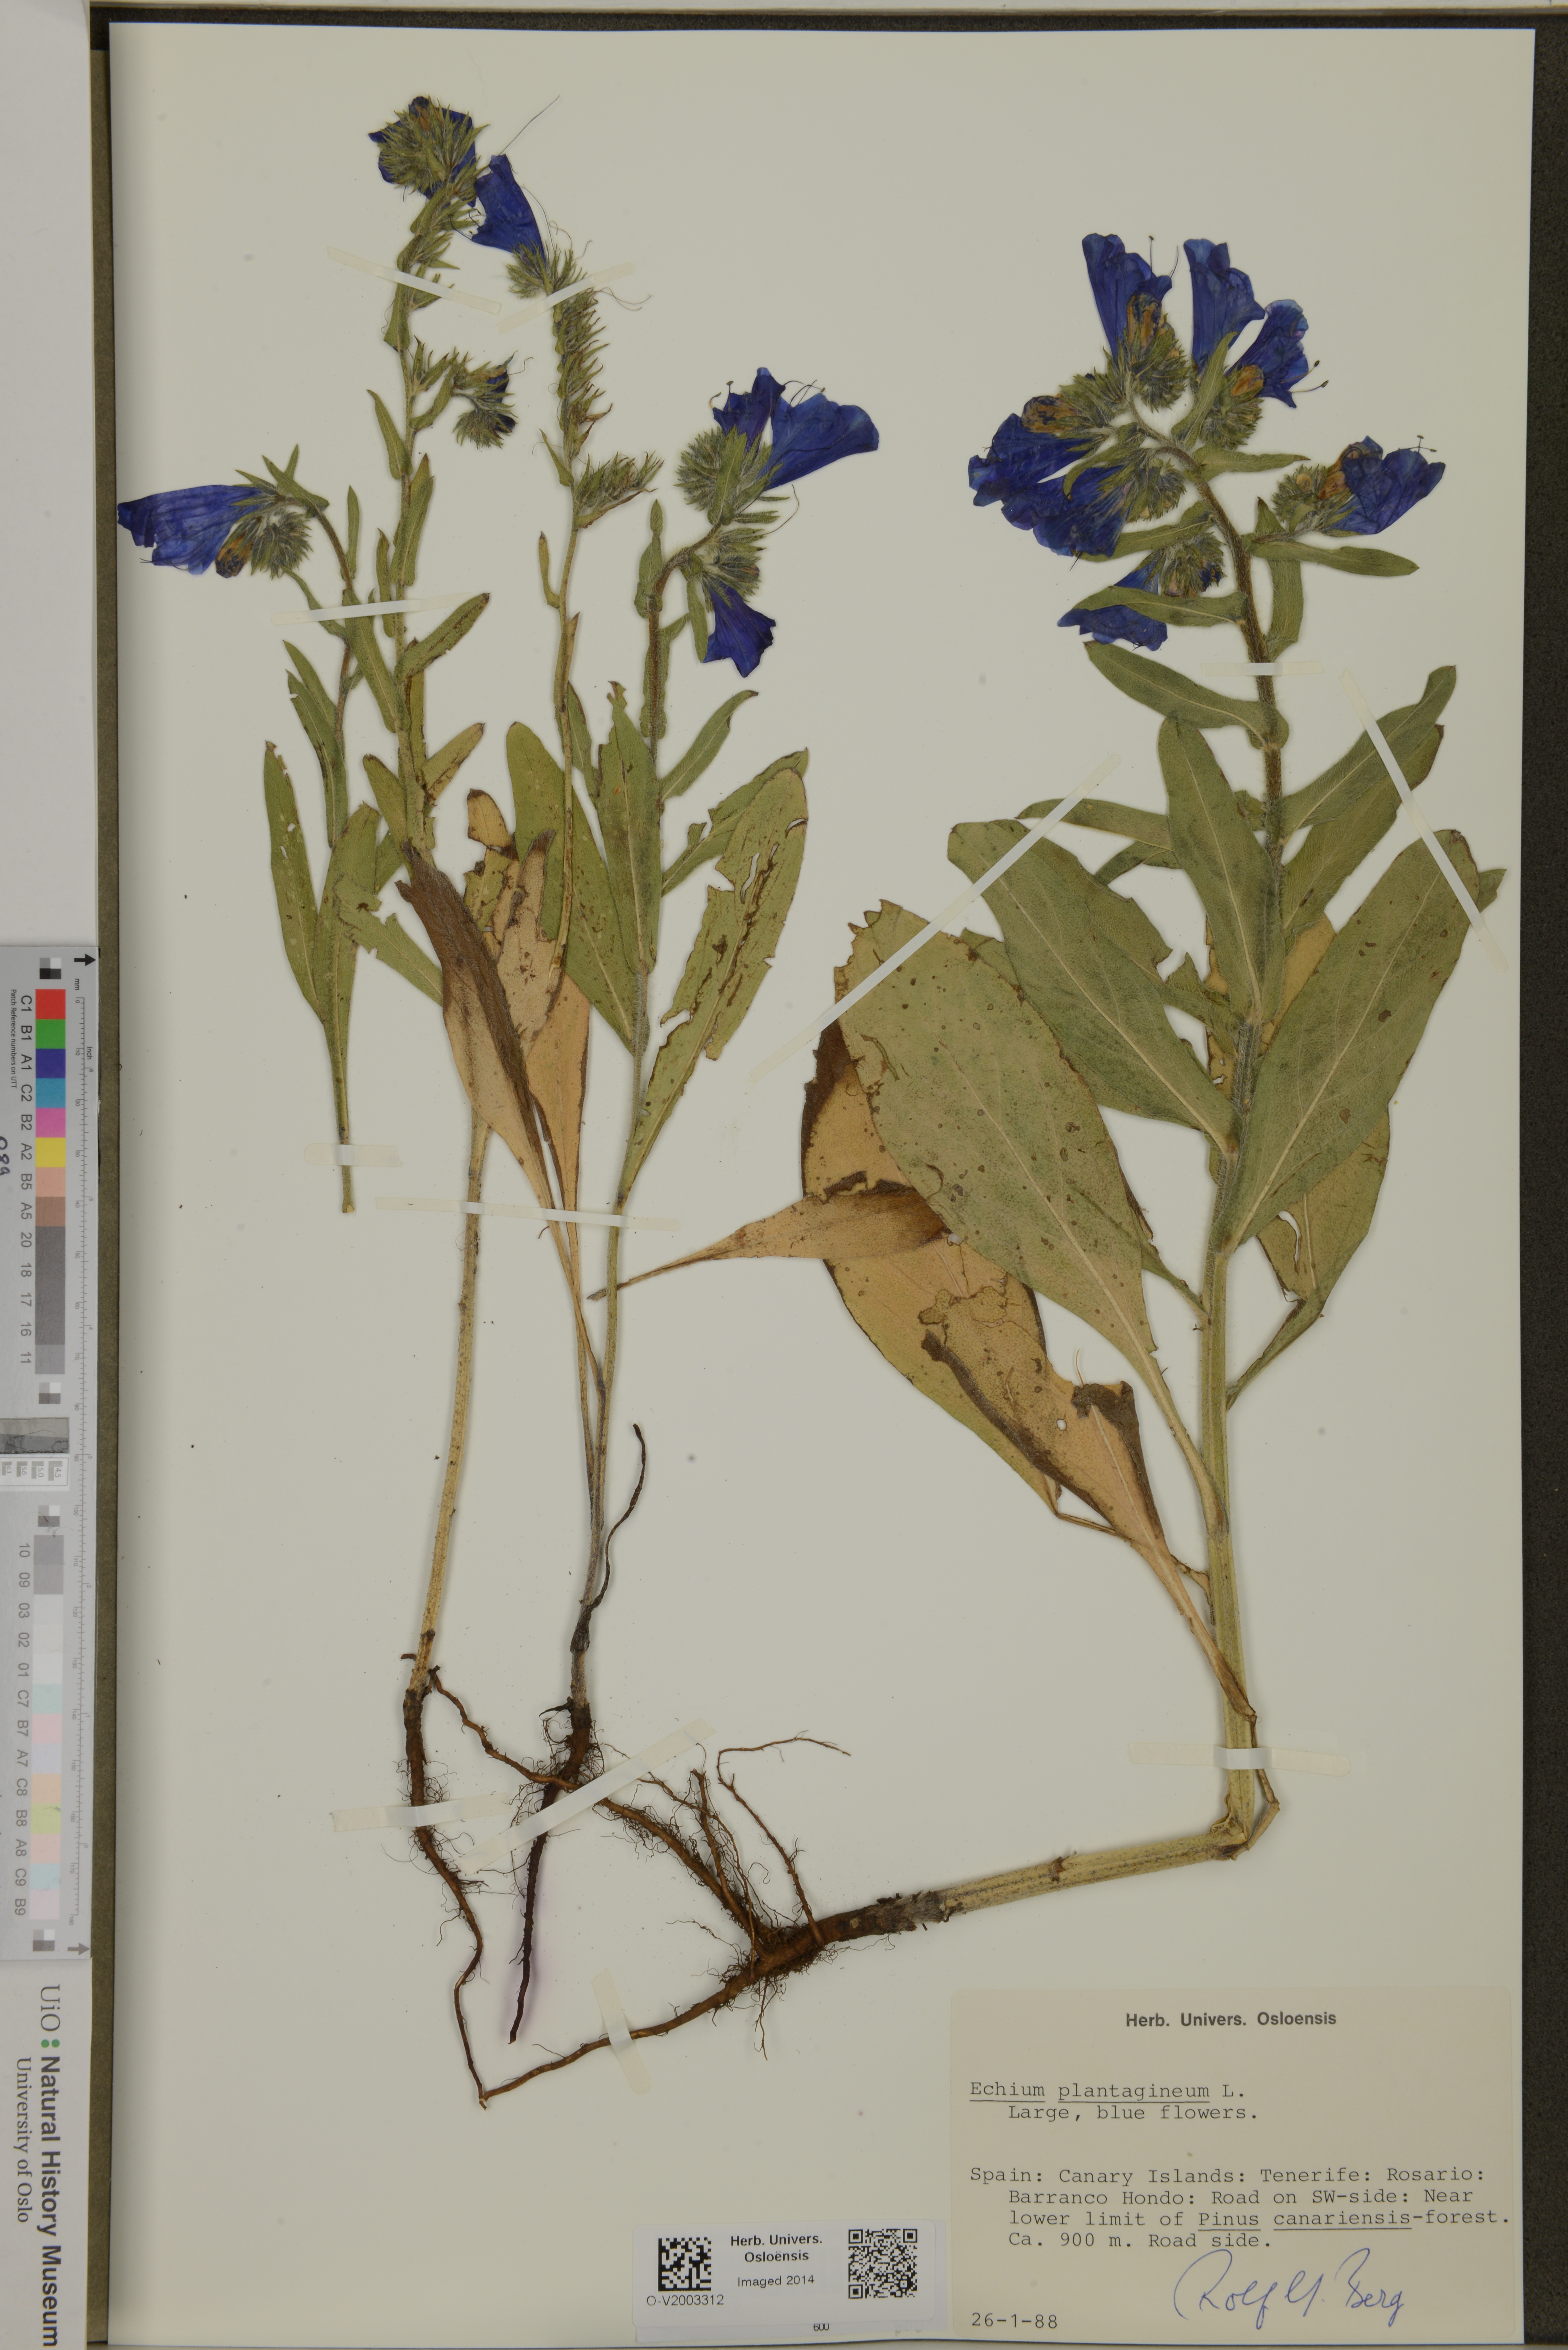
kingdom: Plantae
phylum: Tracheophyta
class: Magnoliopsida
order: Boraginales
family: Boraginaceae
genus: Echium
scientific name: Echium plantagineum
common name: Purple viper's-bugloss
